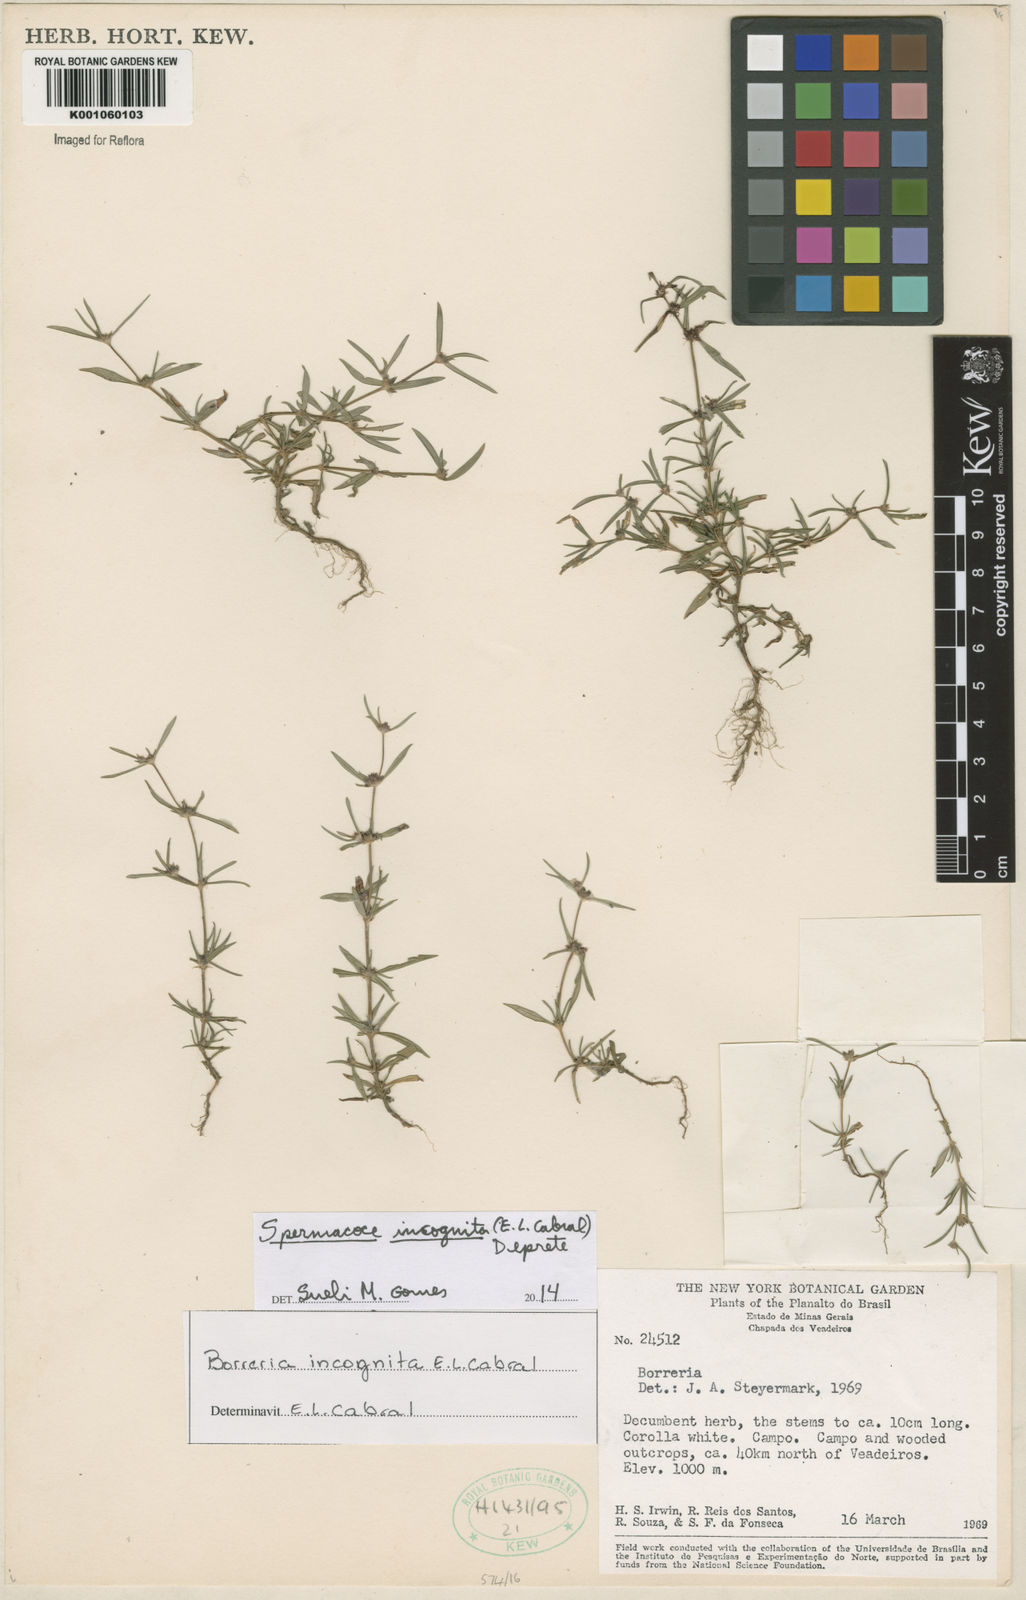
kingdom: Plantae
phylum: Tracheophyta
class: Magnoliopsida
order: Gentianales
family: Rubiaceae
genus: Spermacoce
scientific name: Spermacoce incognita
